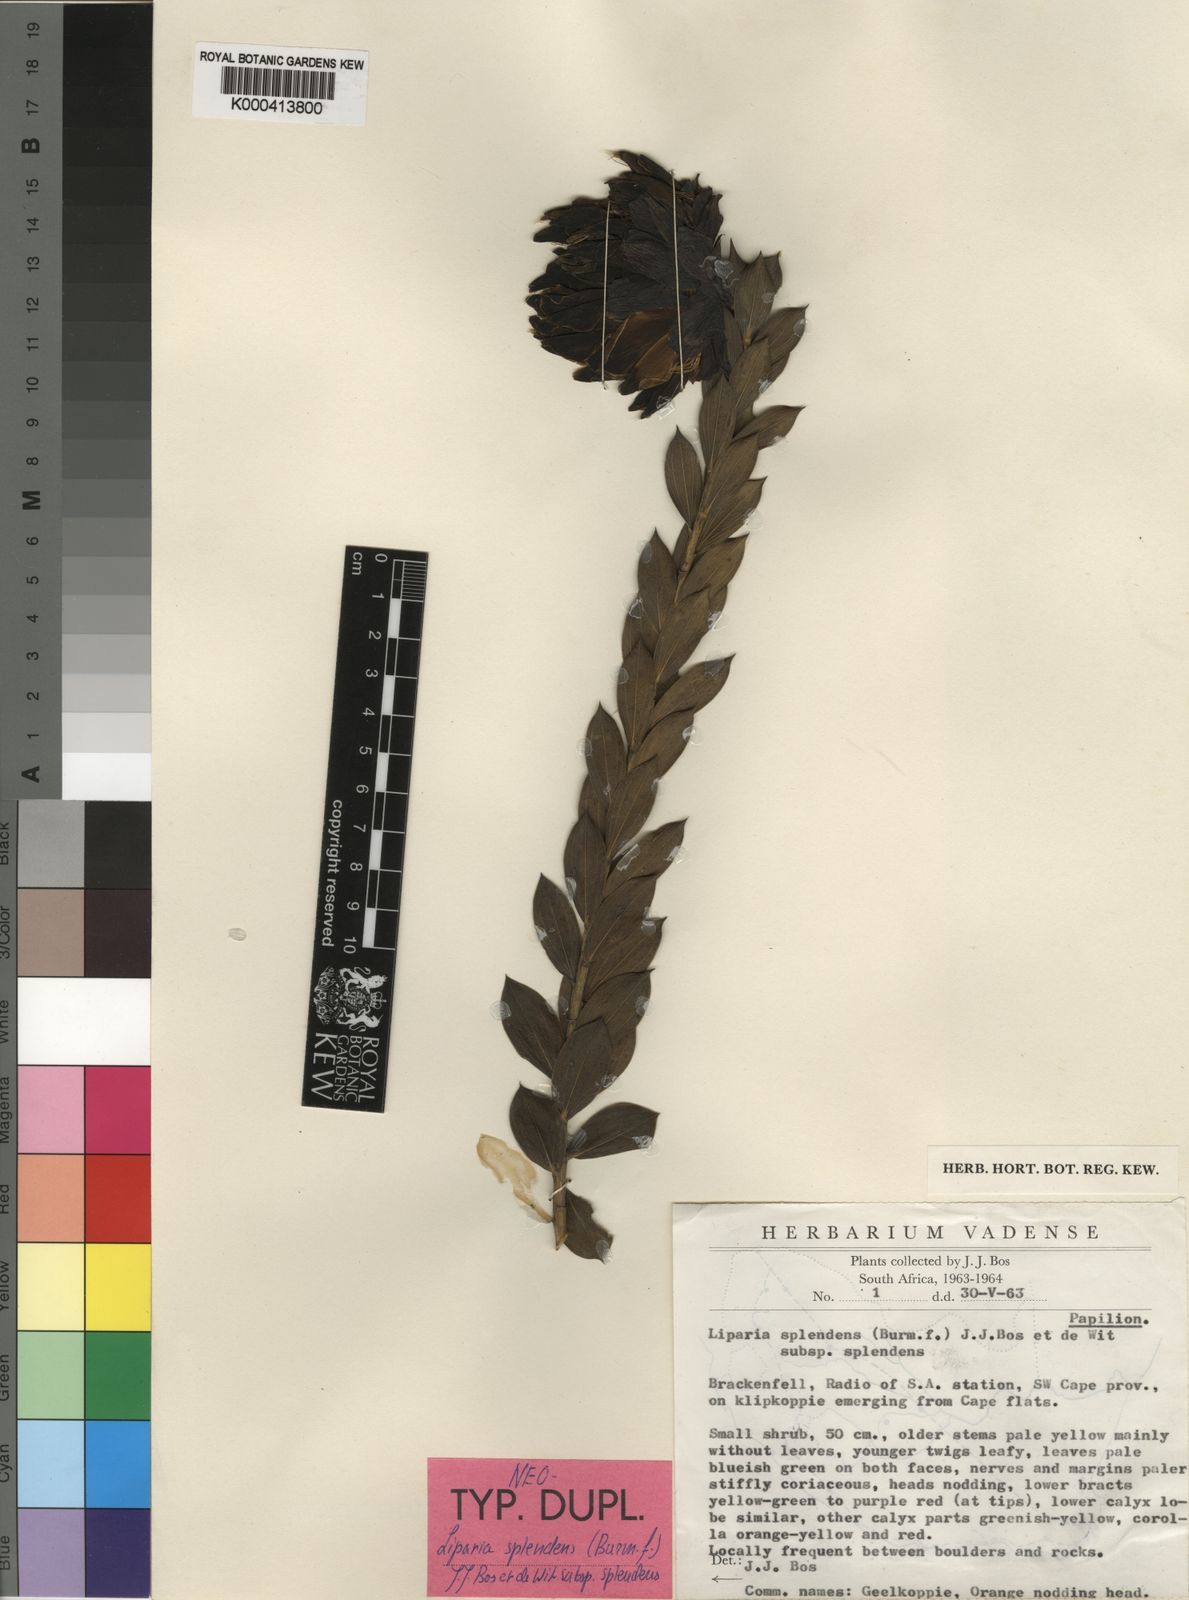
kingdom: Plantae
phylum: Tracheophyta
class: Magnoliopsida
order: Fabales
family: Fabaceae
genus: Liparia
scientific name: Liparia splendens
